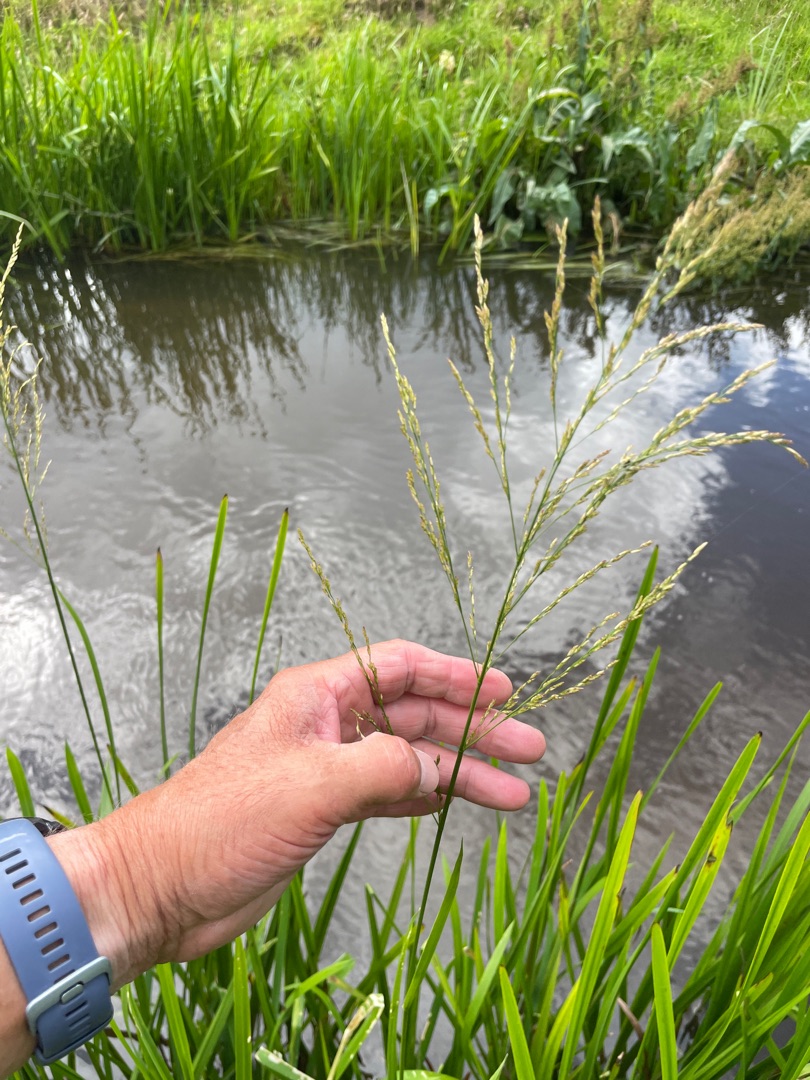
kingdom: Plantae
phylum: Tracheophyta
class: Liliopsida
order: Poales
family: Poaceae
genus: Glyceria
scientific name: Glyceria maxima
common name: Høj sødgræs
